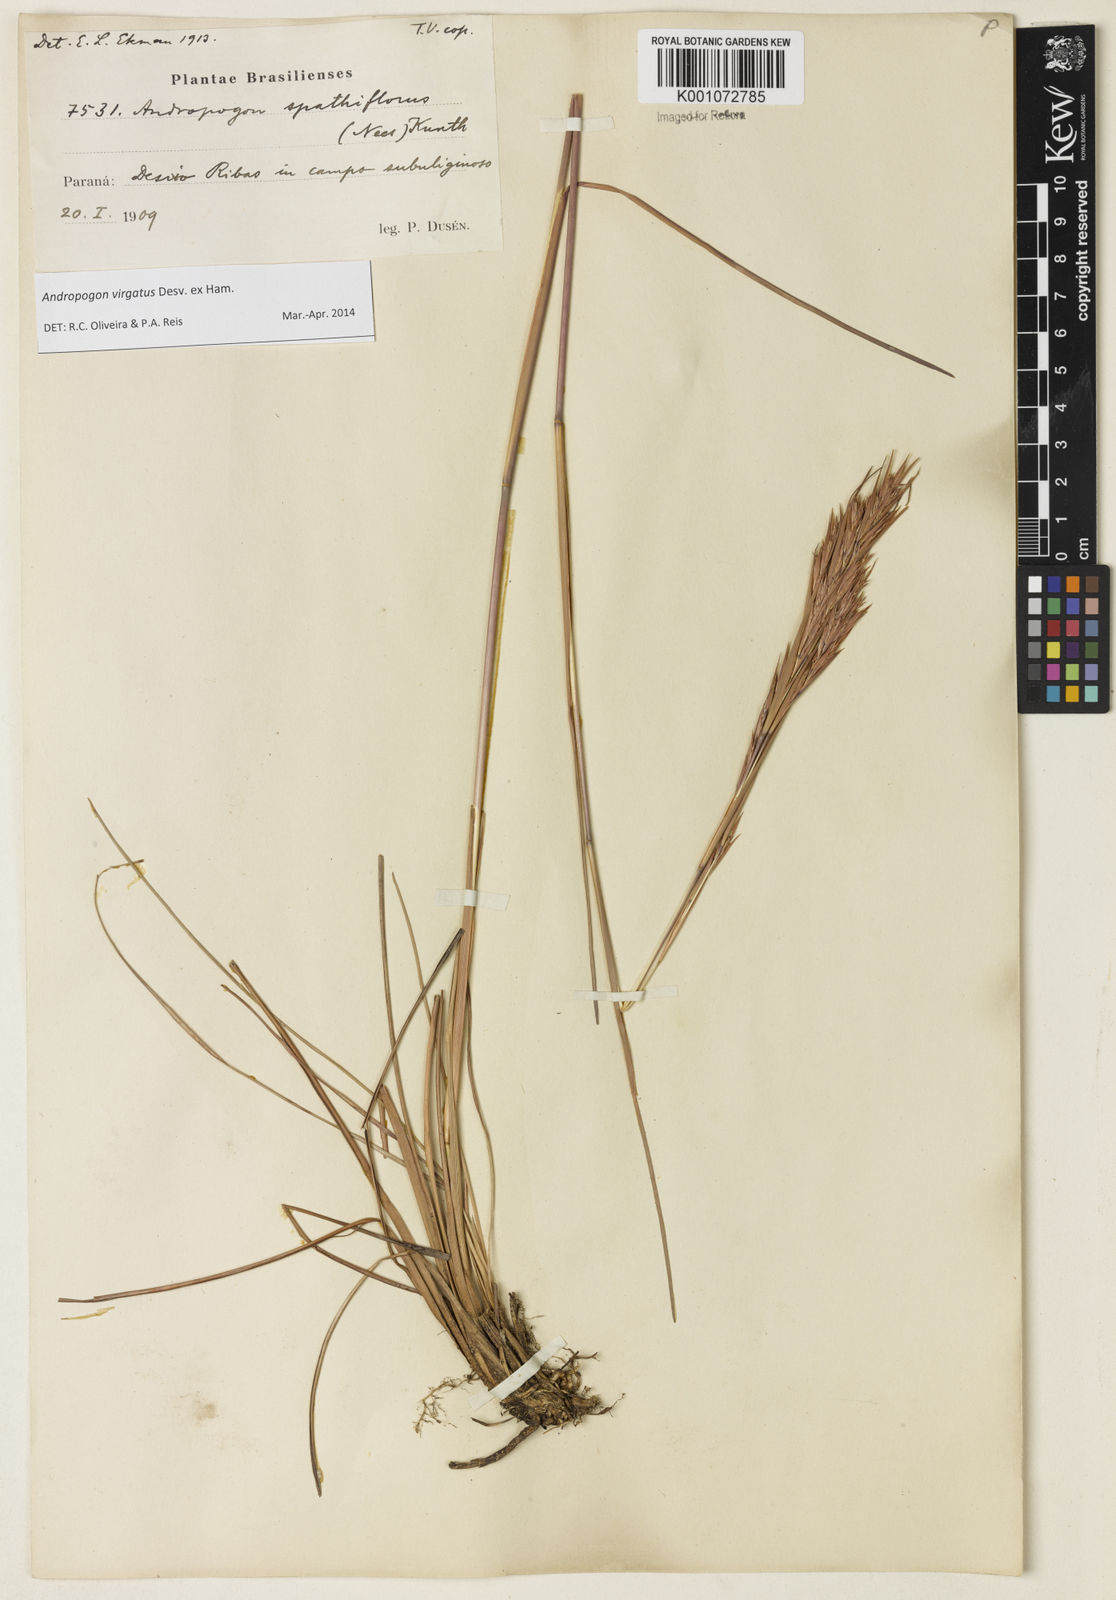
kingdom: Plantae
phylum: Tracheophyta
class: Liliopsida
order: Poales
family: Poaceae
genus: Andropogon
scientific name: Andropogon virgatus
